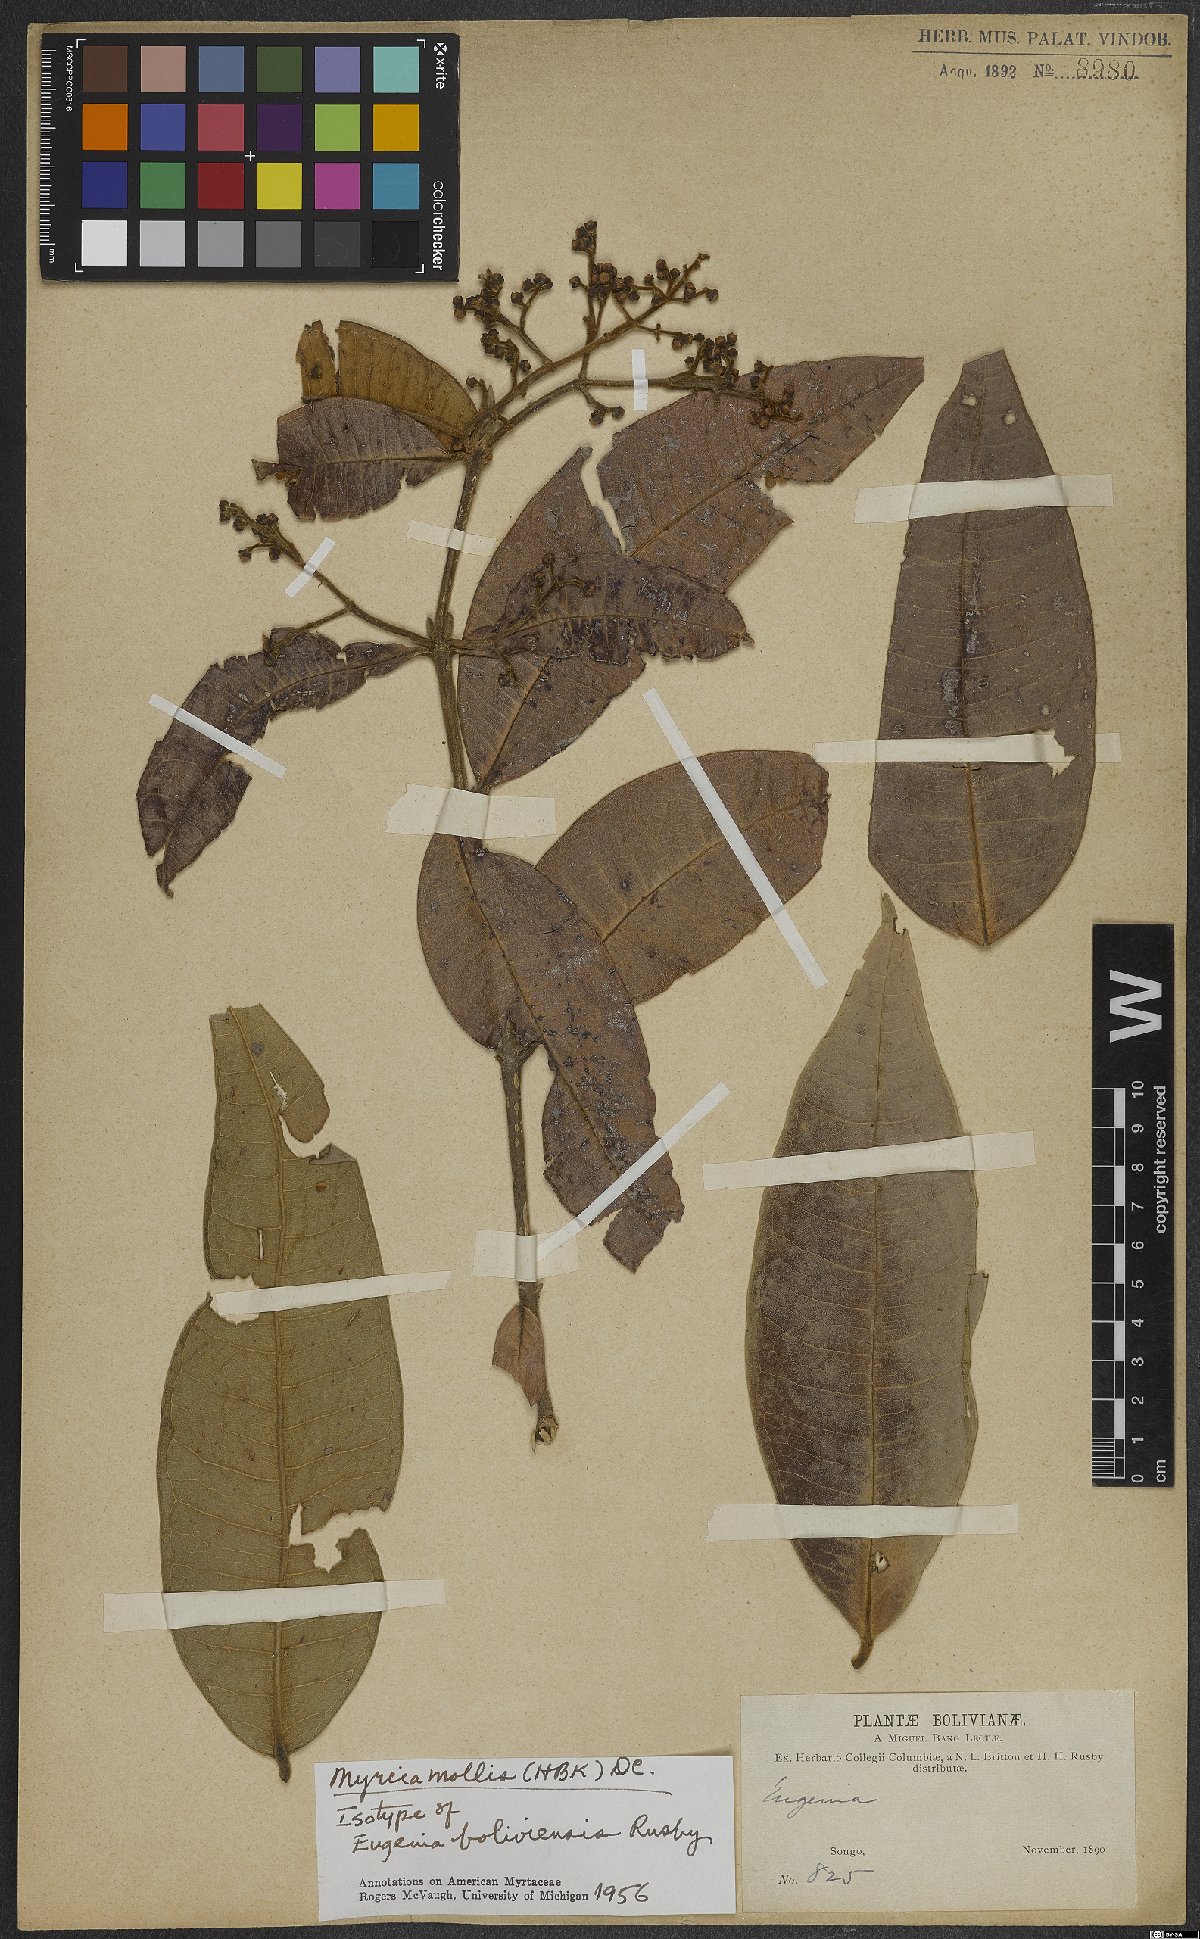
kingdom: Plantae
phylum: Tracheophyta
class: Magnoliopsida
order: Myrtales
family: Myrtaceae
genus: Myrcia
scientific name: Myrcia mollis
